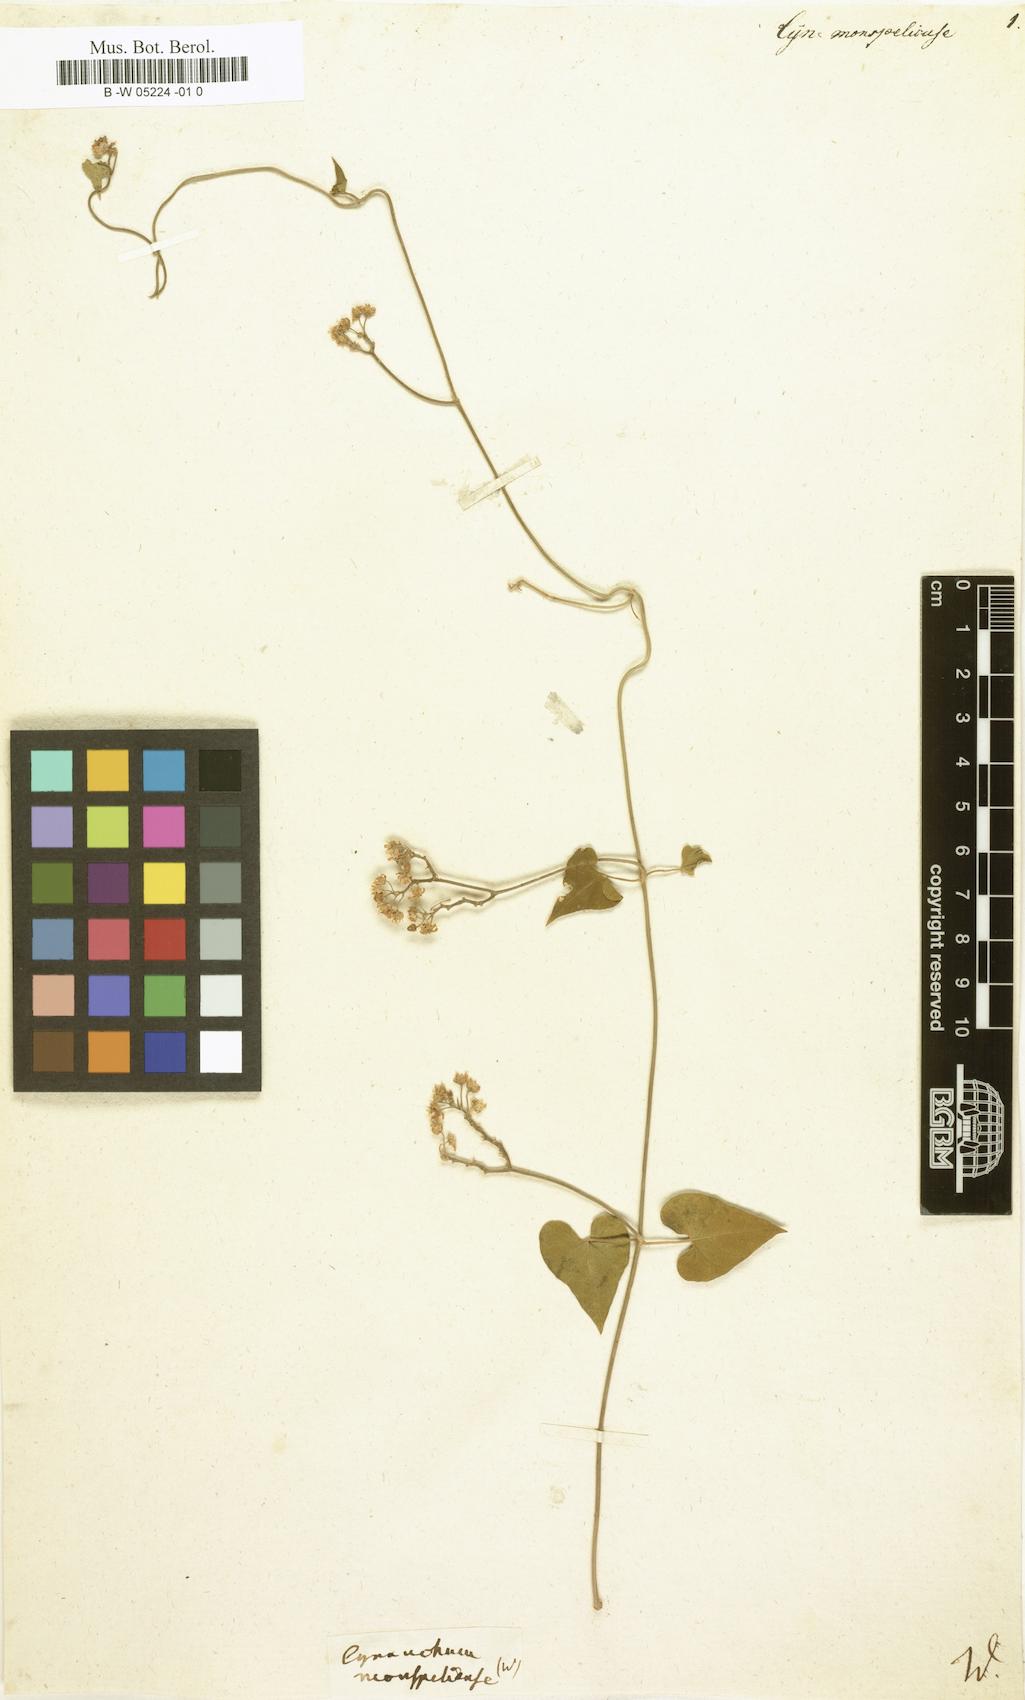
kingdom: Plantae
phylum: Tracheophyta
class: Magnoliopsida
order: Gentianales
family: Apocynaceae
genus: Cynanchum
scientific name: Cynanchum
